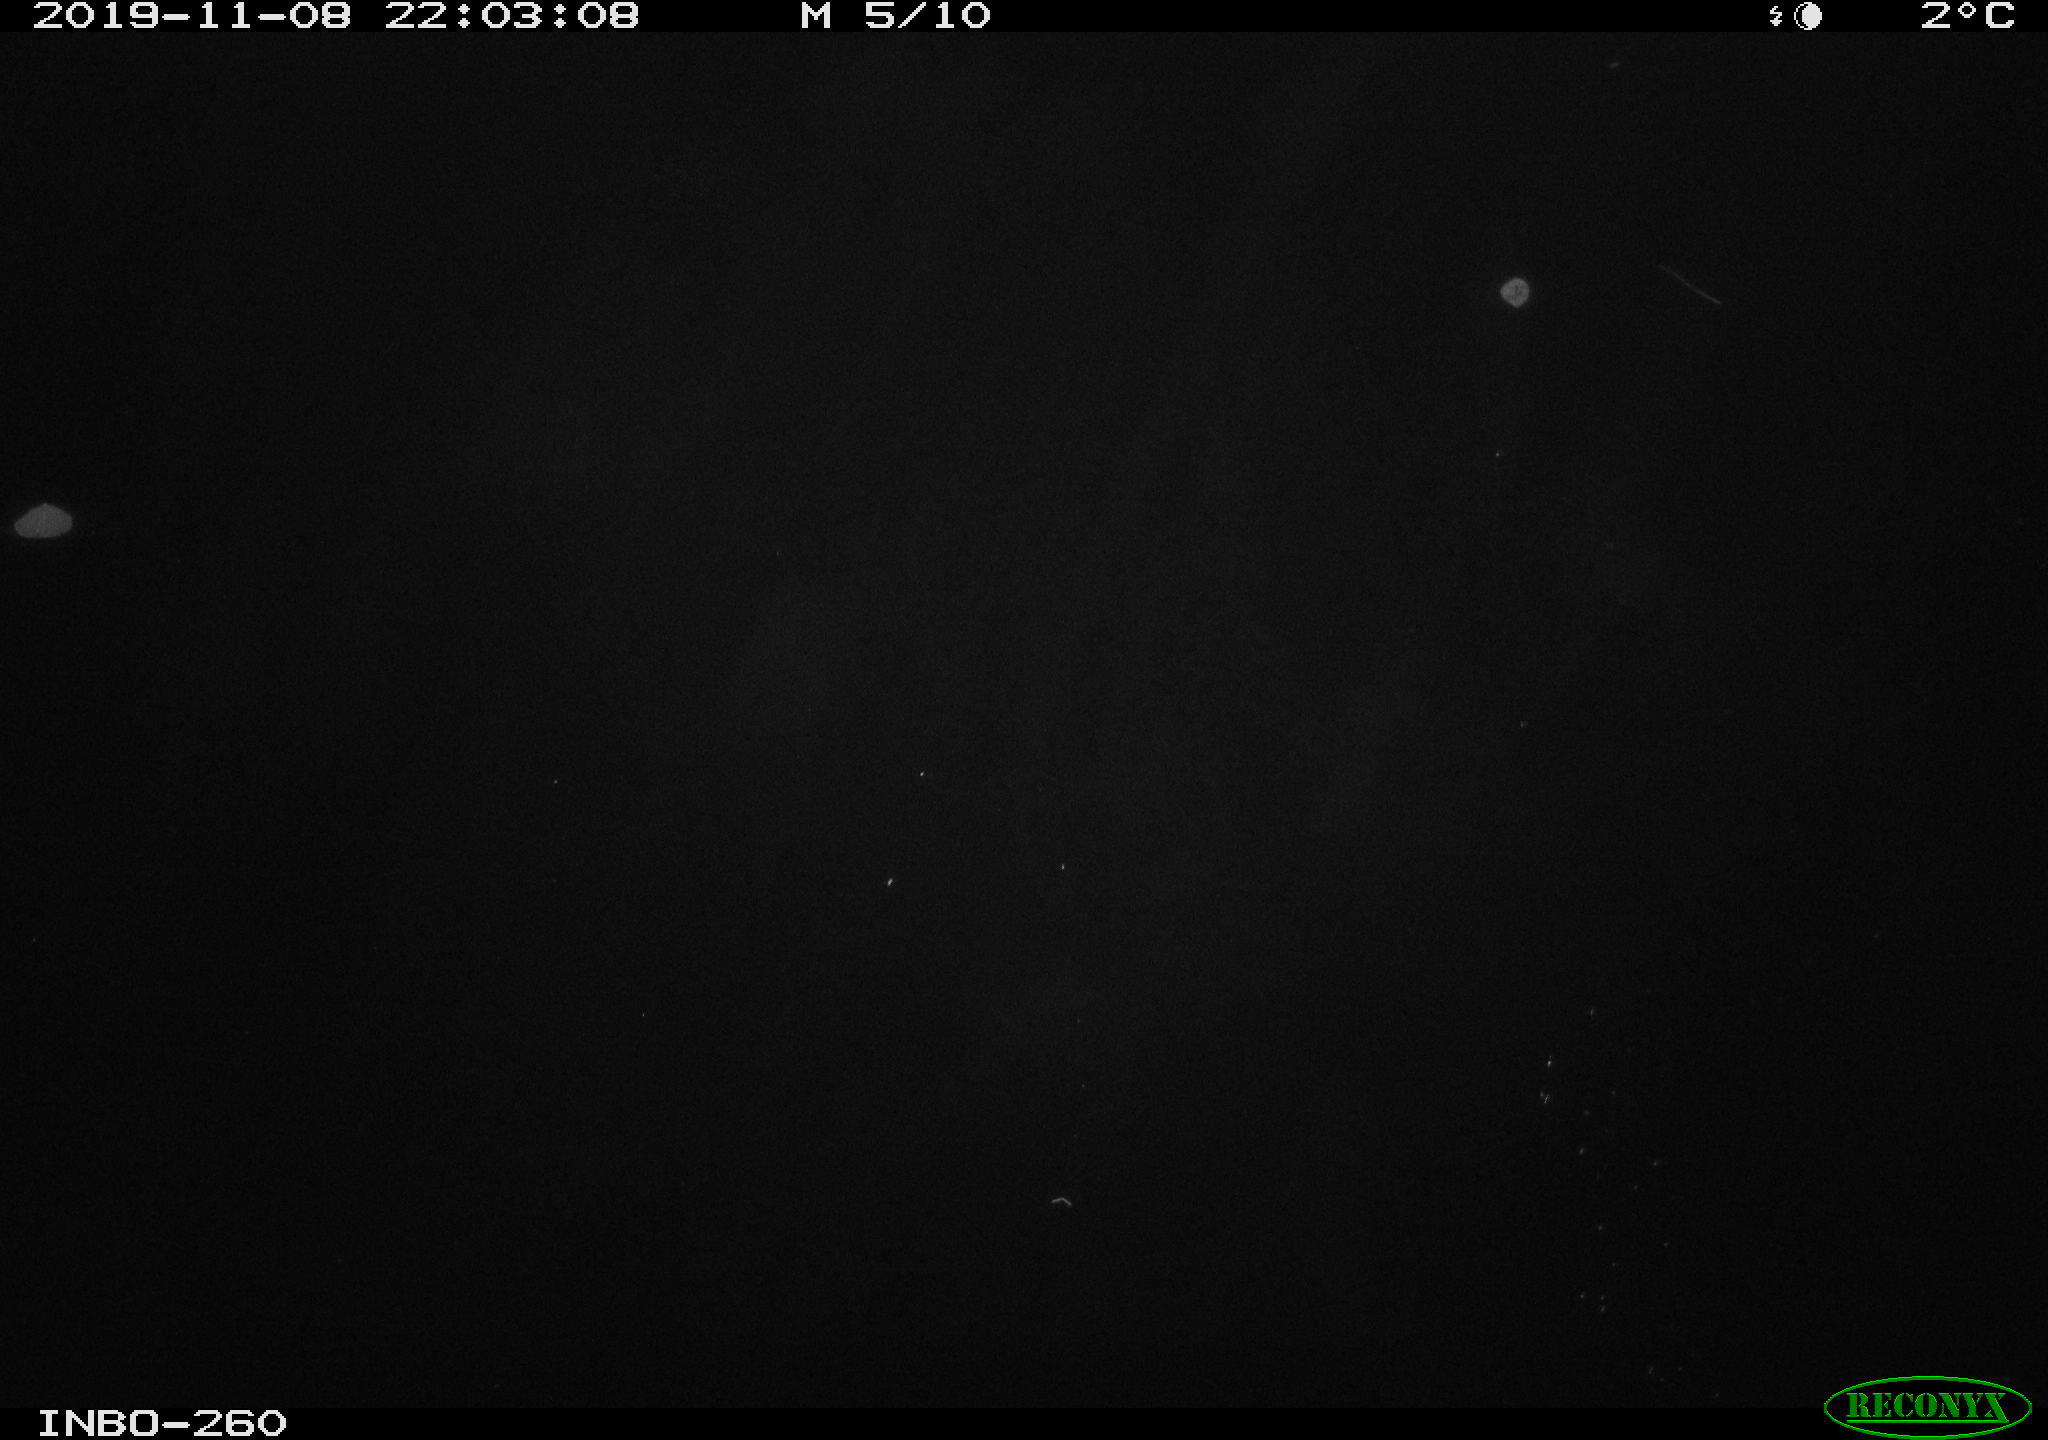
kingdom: Animalia
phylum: Chordata
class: Aves
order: Anseriformes
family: Anatidae
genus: Anas
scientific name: Anas platyrhynchos
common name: Mallard
